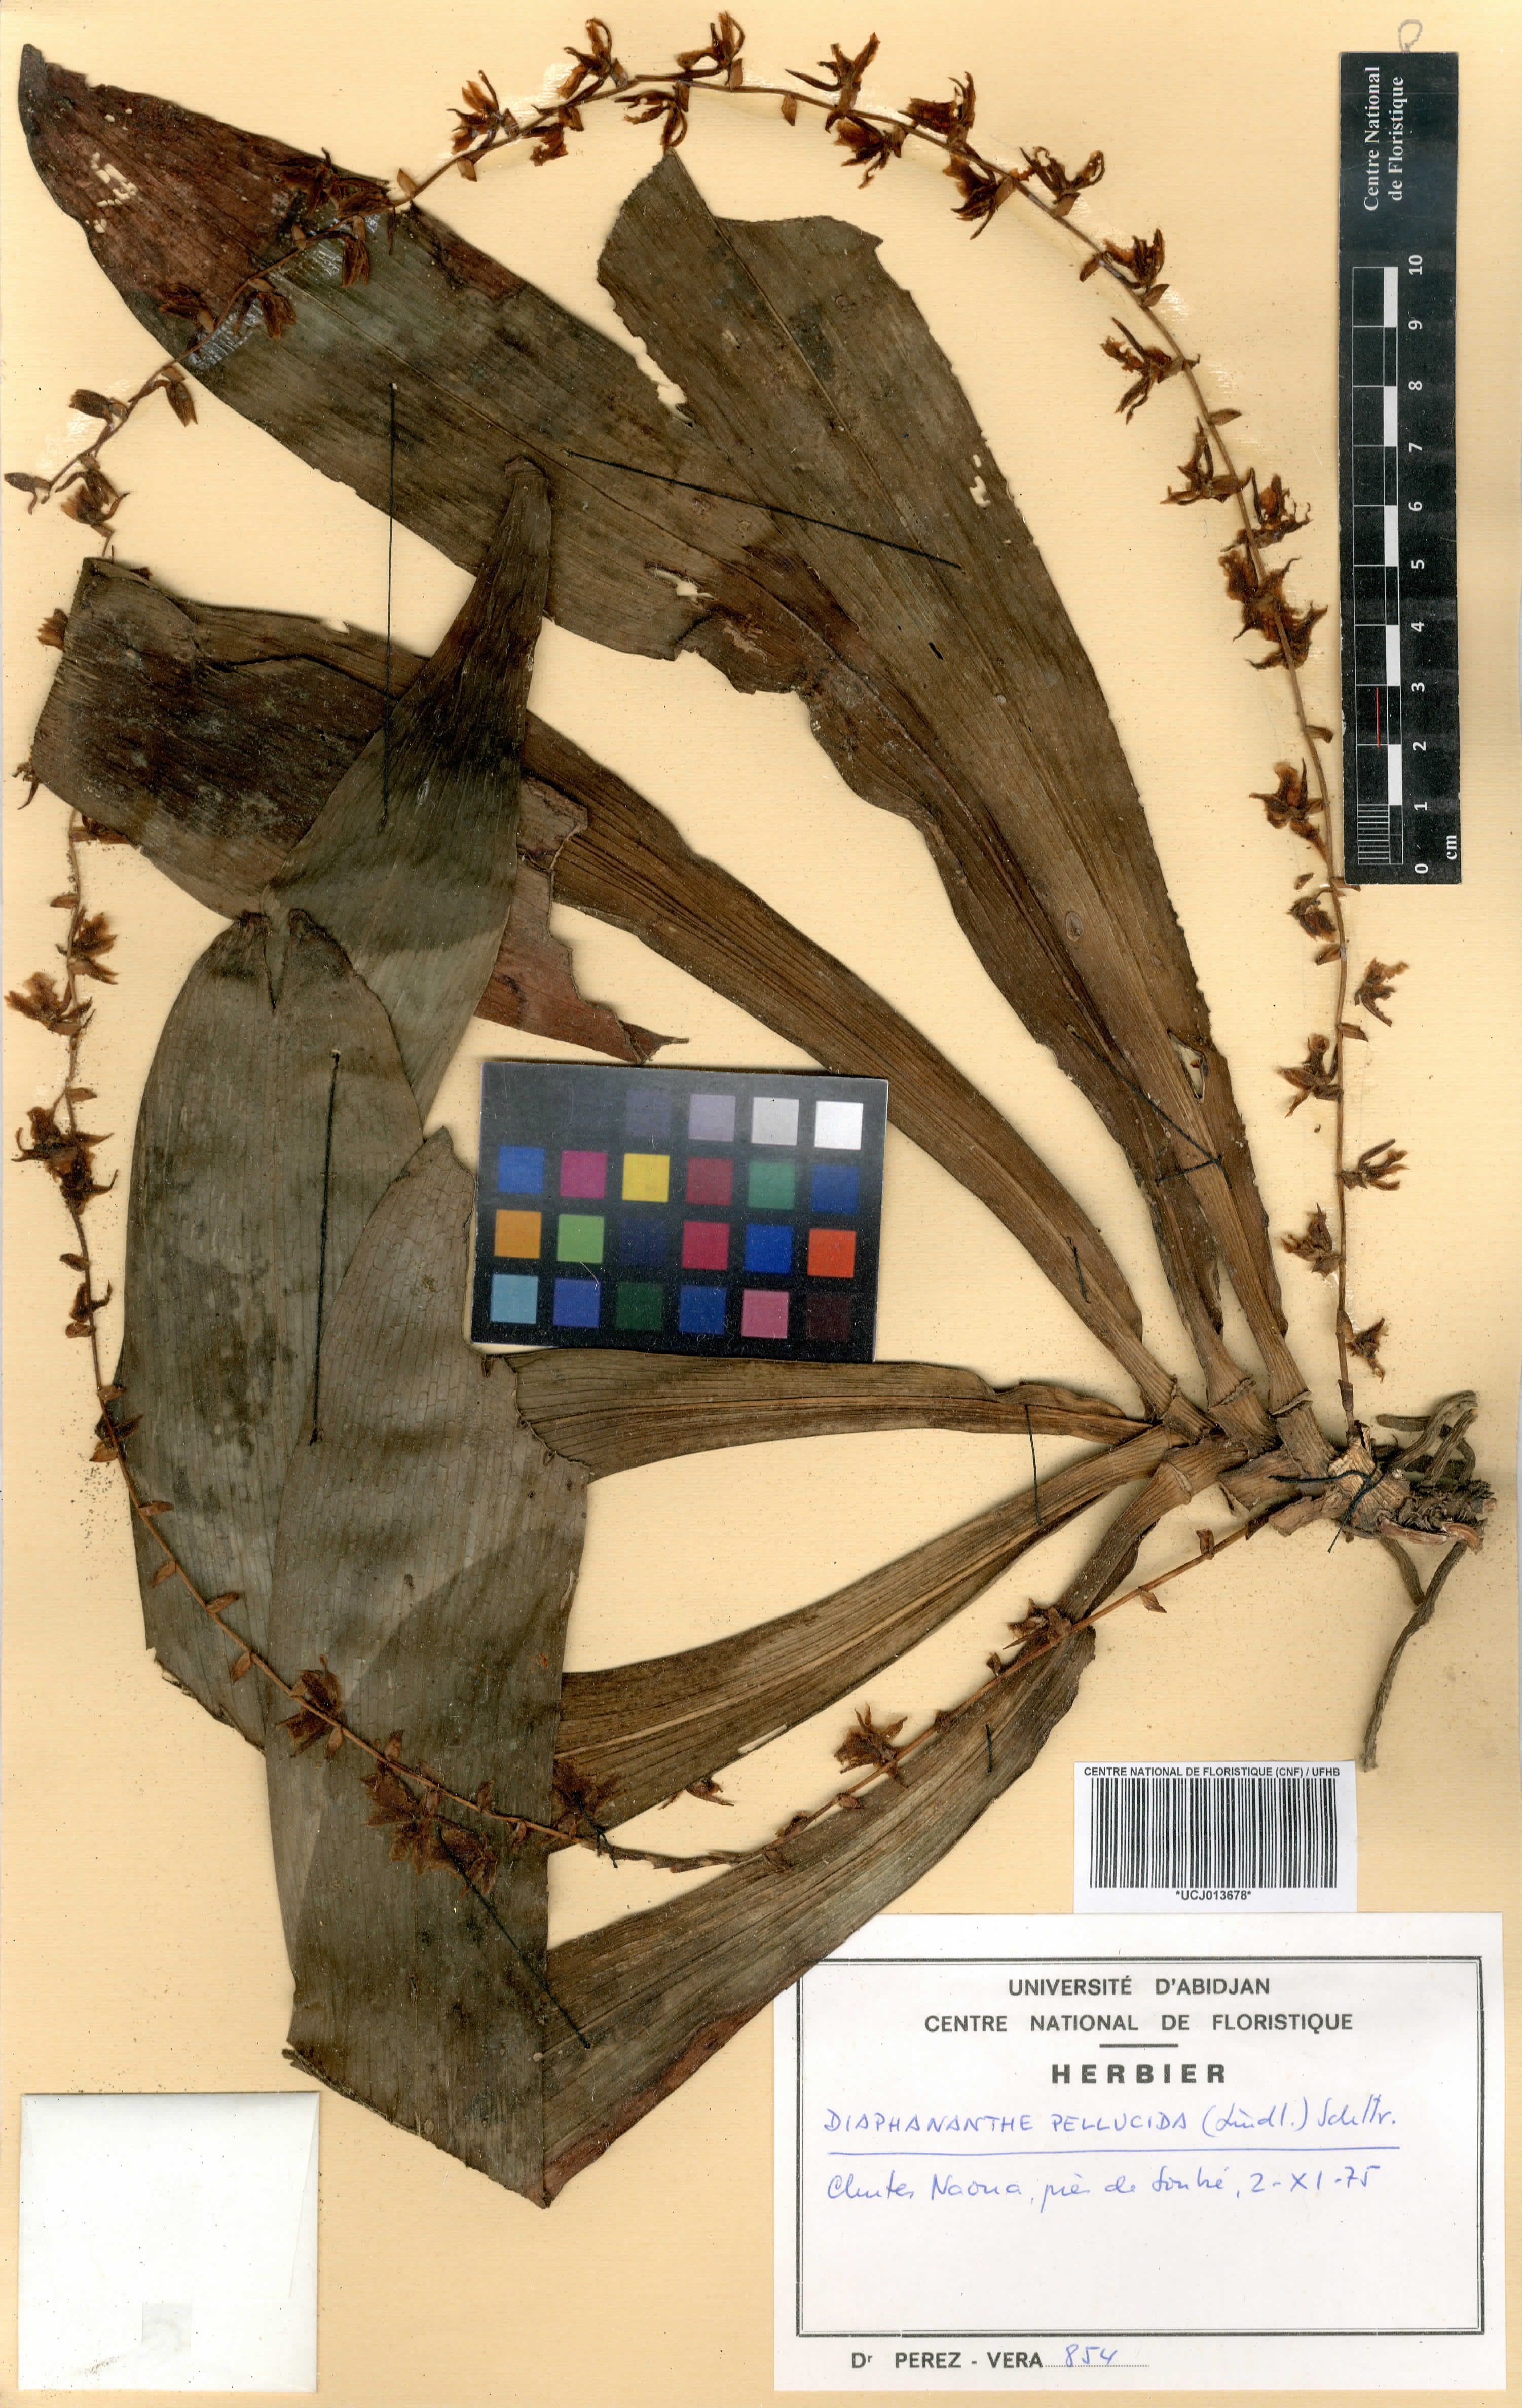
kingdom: Plantae
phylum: Tracheophyta
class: Liliopsida
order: Asparagales
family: Orchidaceae
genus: Diaphananthe
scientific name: Diaphananthe pellucida
